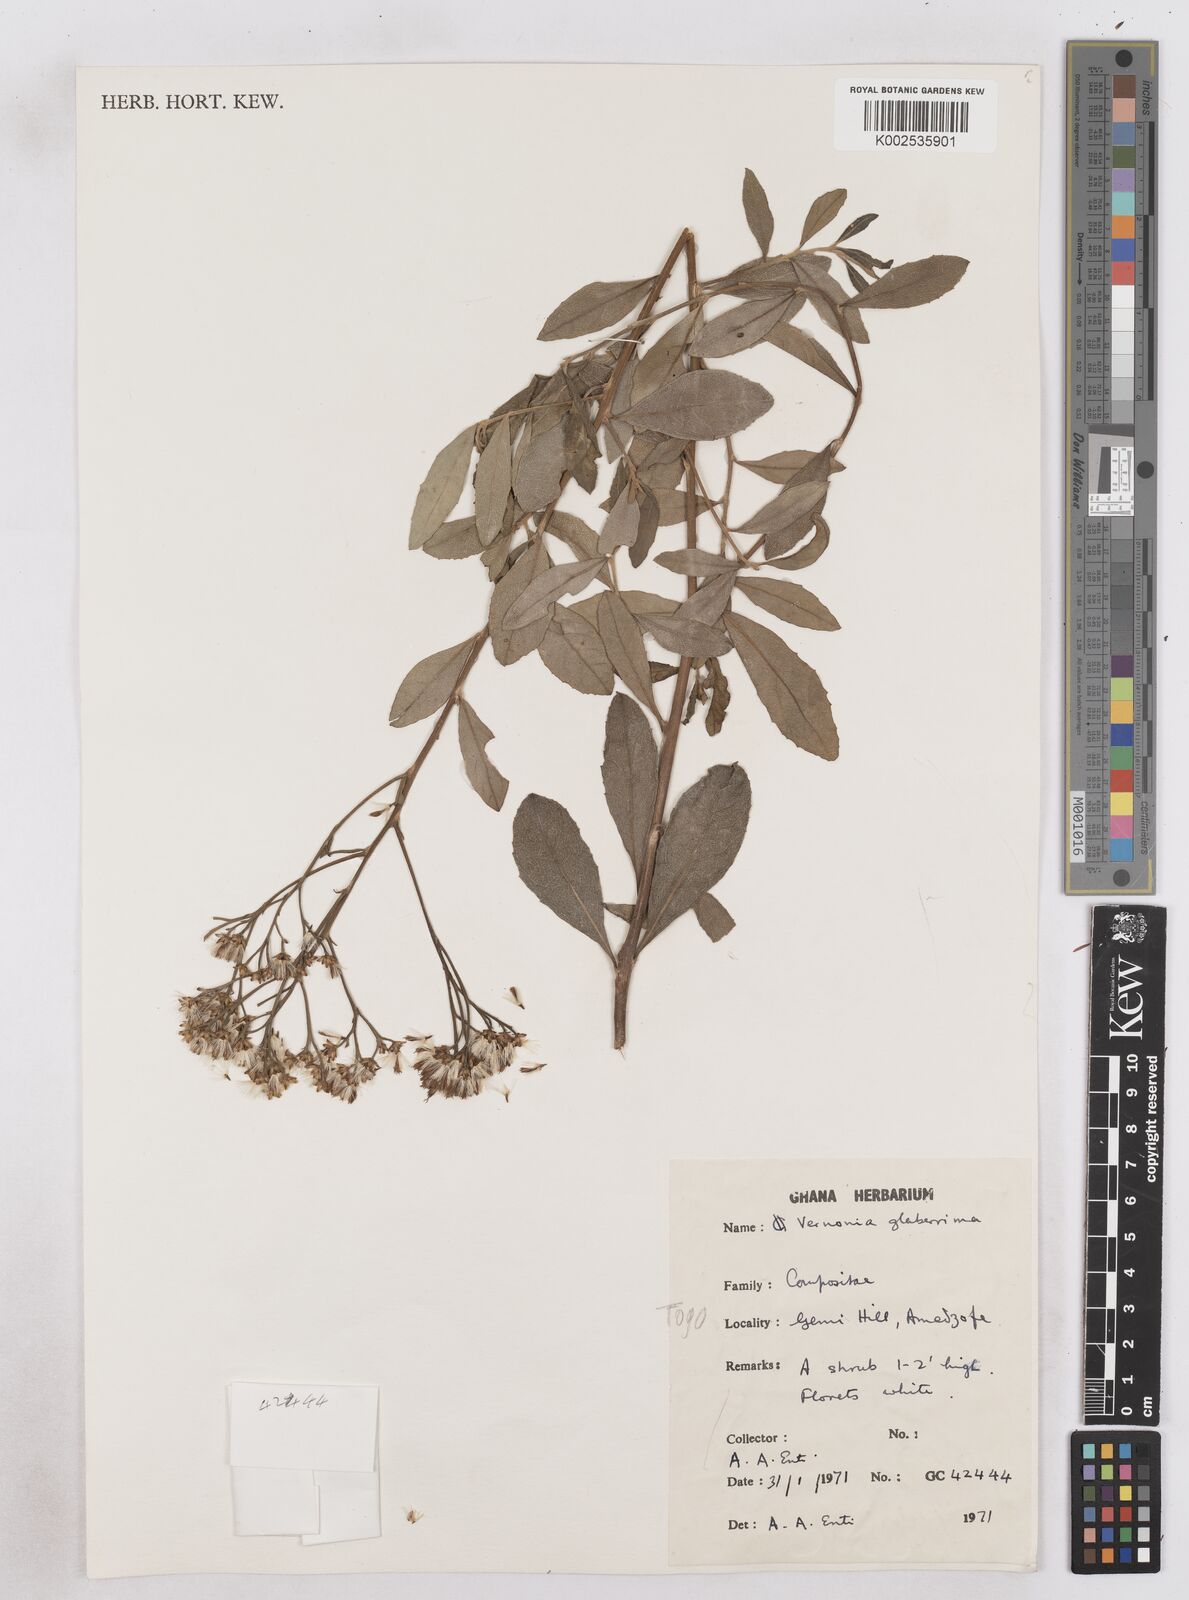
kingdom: Plantae
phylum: Tracheophyta
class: Magnoliopsida
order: Asterales
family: Asteraceae
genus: Gymnanthemum
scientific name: Gymnanthemum glaberrimum
